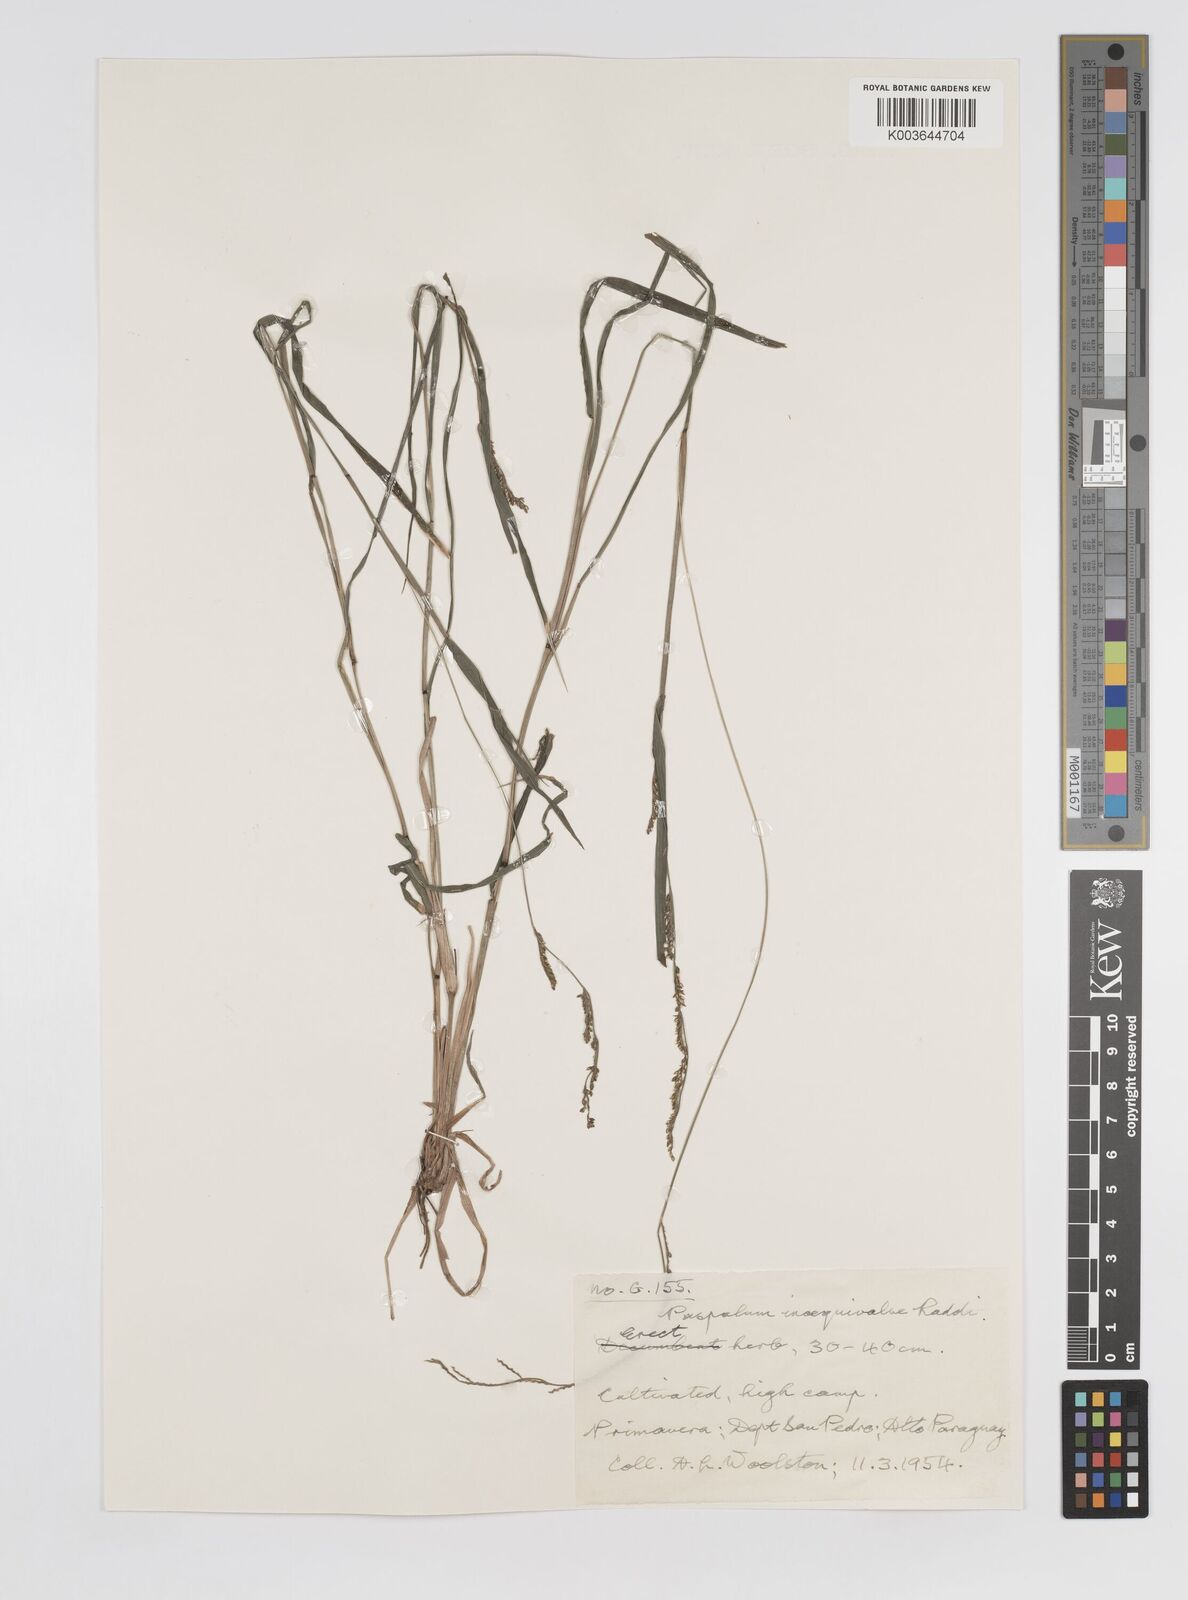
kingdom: Plantae
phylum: Tracheophyta
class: Liliopsida
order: Poales
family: Poaceae
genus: Paspalum
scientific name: Paspalum inaequivalve
